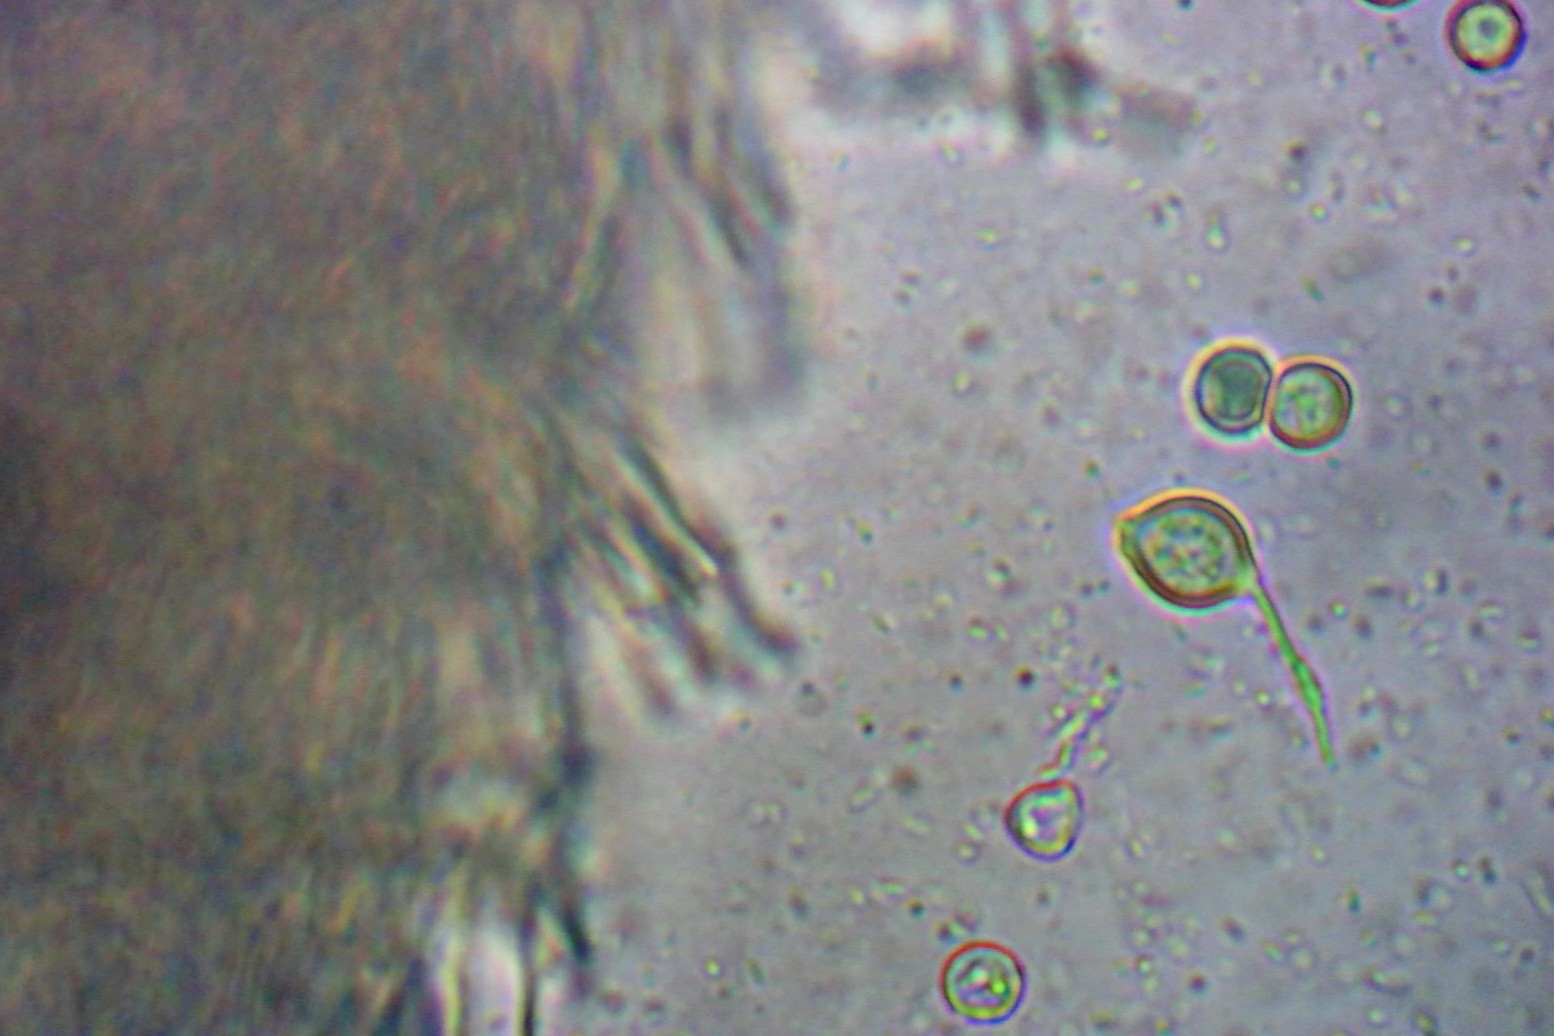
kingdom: Fungi
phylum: Basidiomycota
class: Agaricomycetes
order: Agaricales
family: Cyphellaceae
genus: Granulobasidium
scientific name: Granulobasidium vellereum
